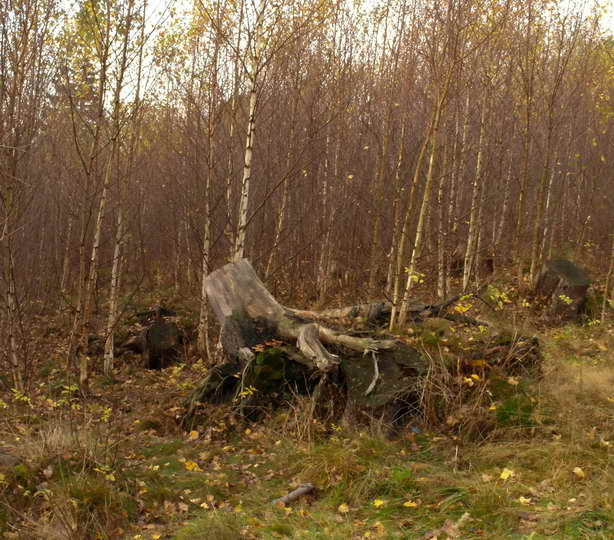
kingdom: Fungi
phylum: Basidiomycota
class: Agaricomycetes
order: Russulales
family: Auriscalpiaceae
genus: Lentinellus
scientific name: Lentinellus ursinus
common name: børstehåret savbladhat
